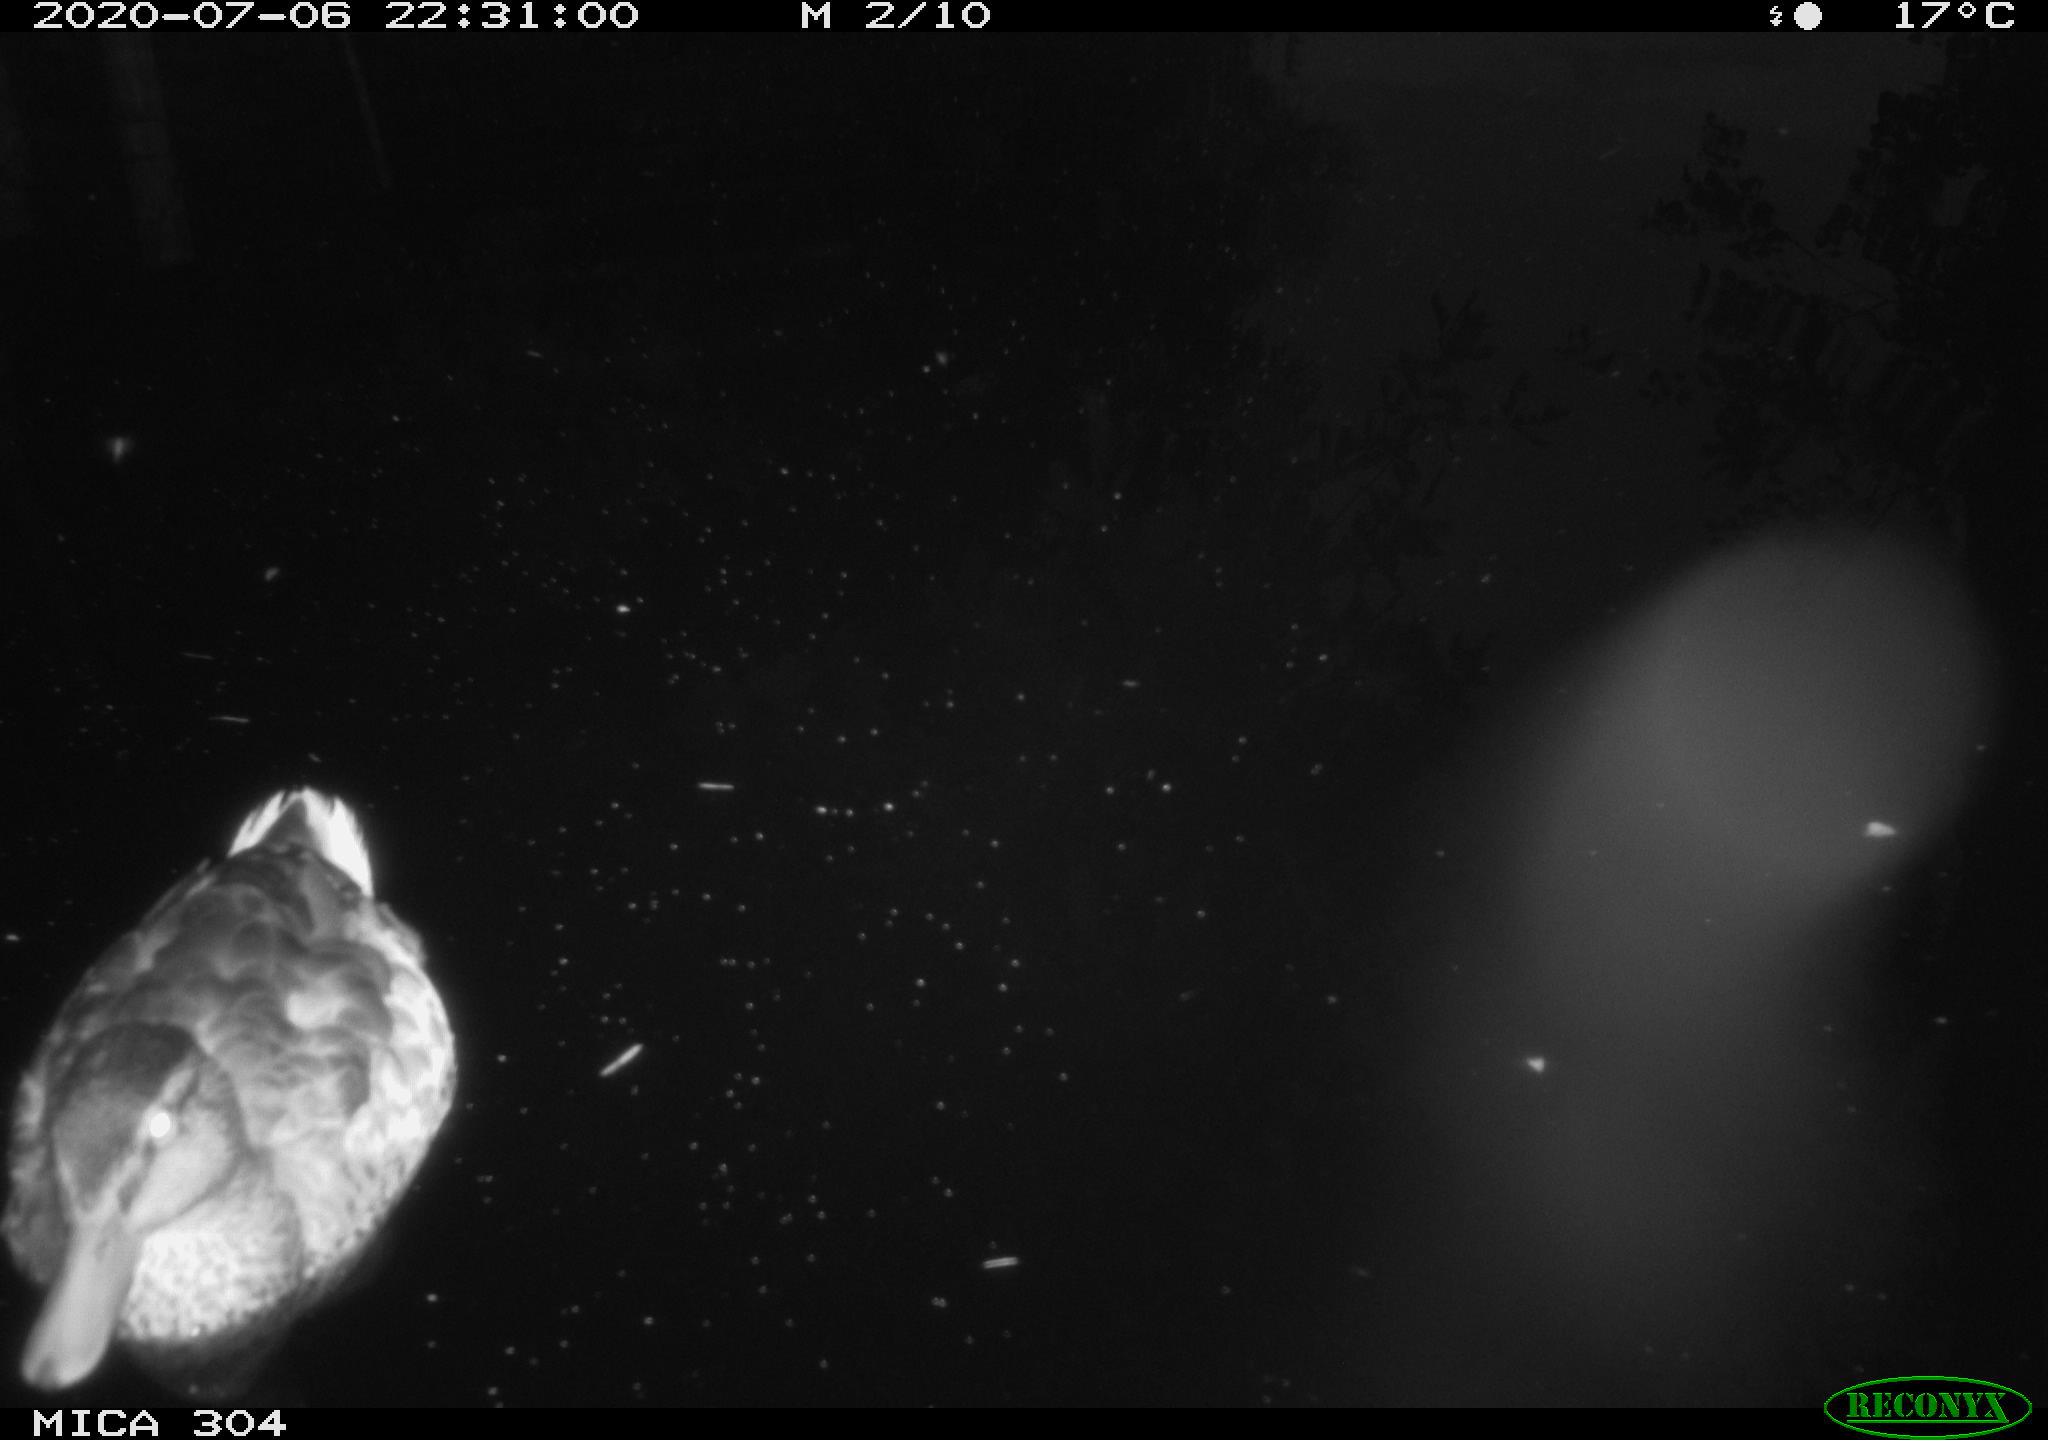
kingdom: Animalia
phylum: Chordata
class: Aves
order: Anseriformes
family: Anatidae
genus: Anas
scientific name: Anas platyrhynchos
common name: Mallard
